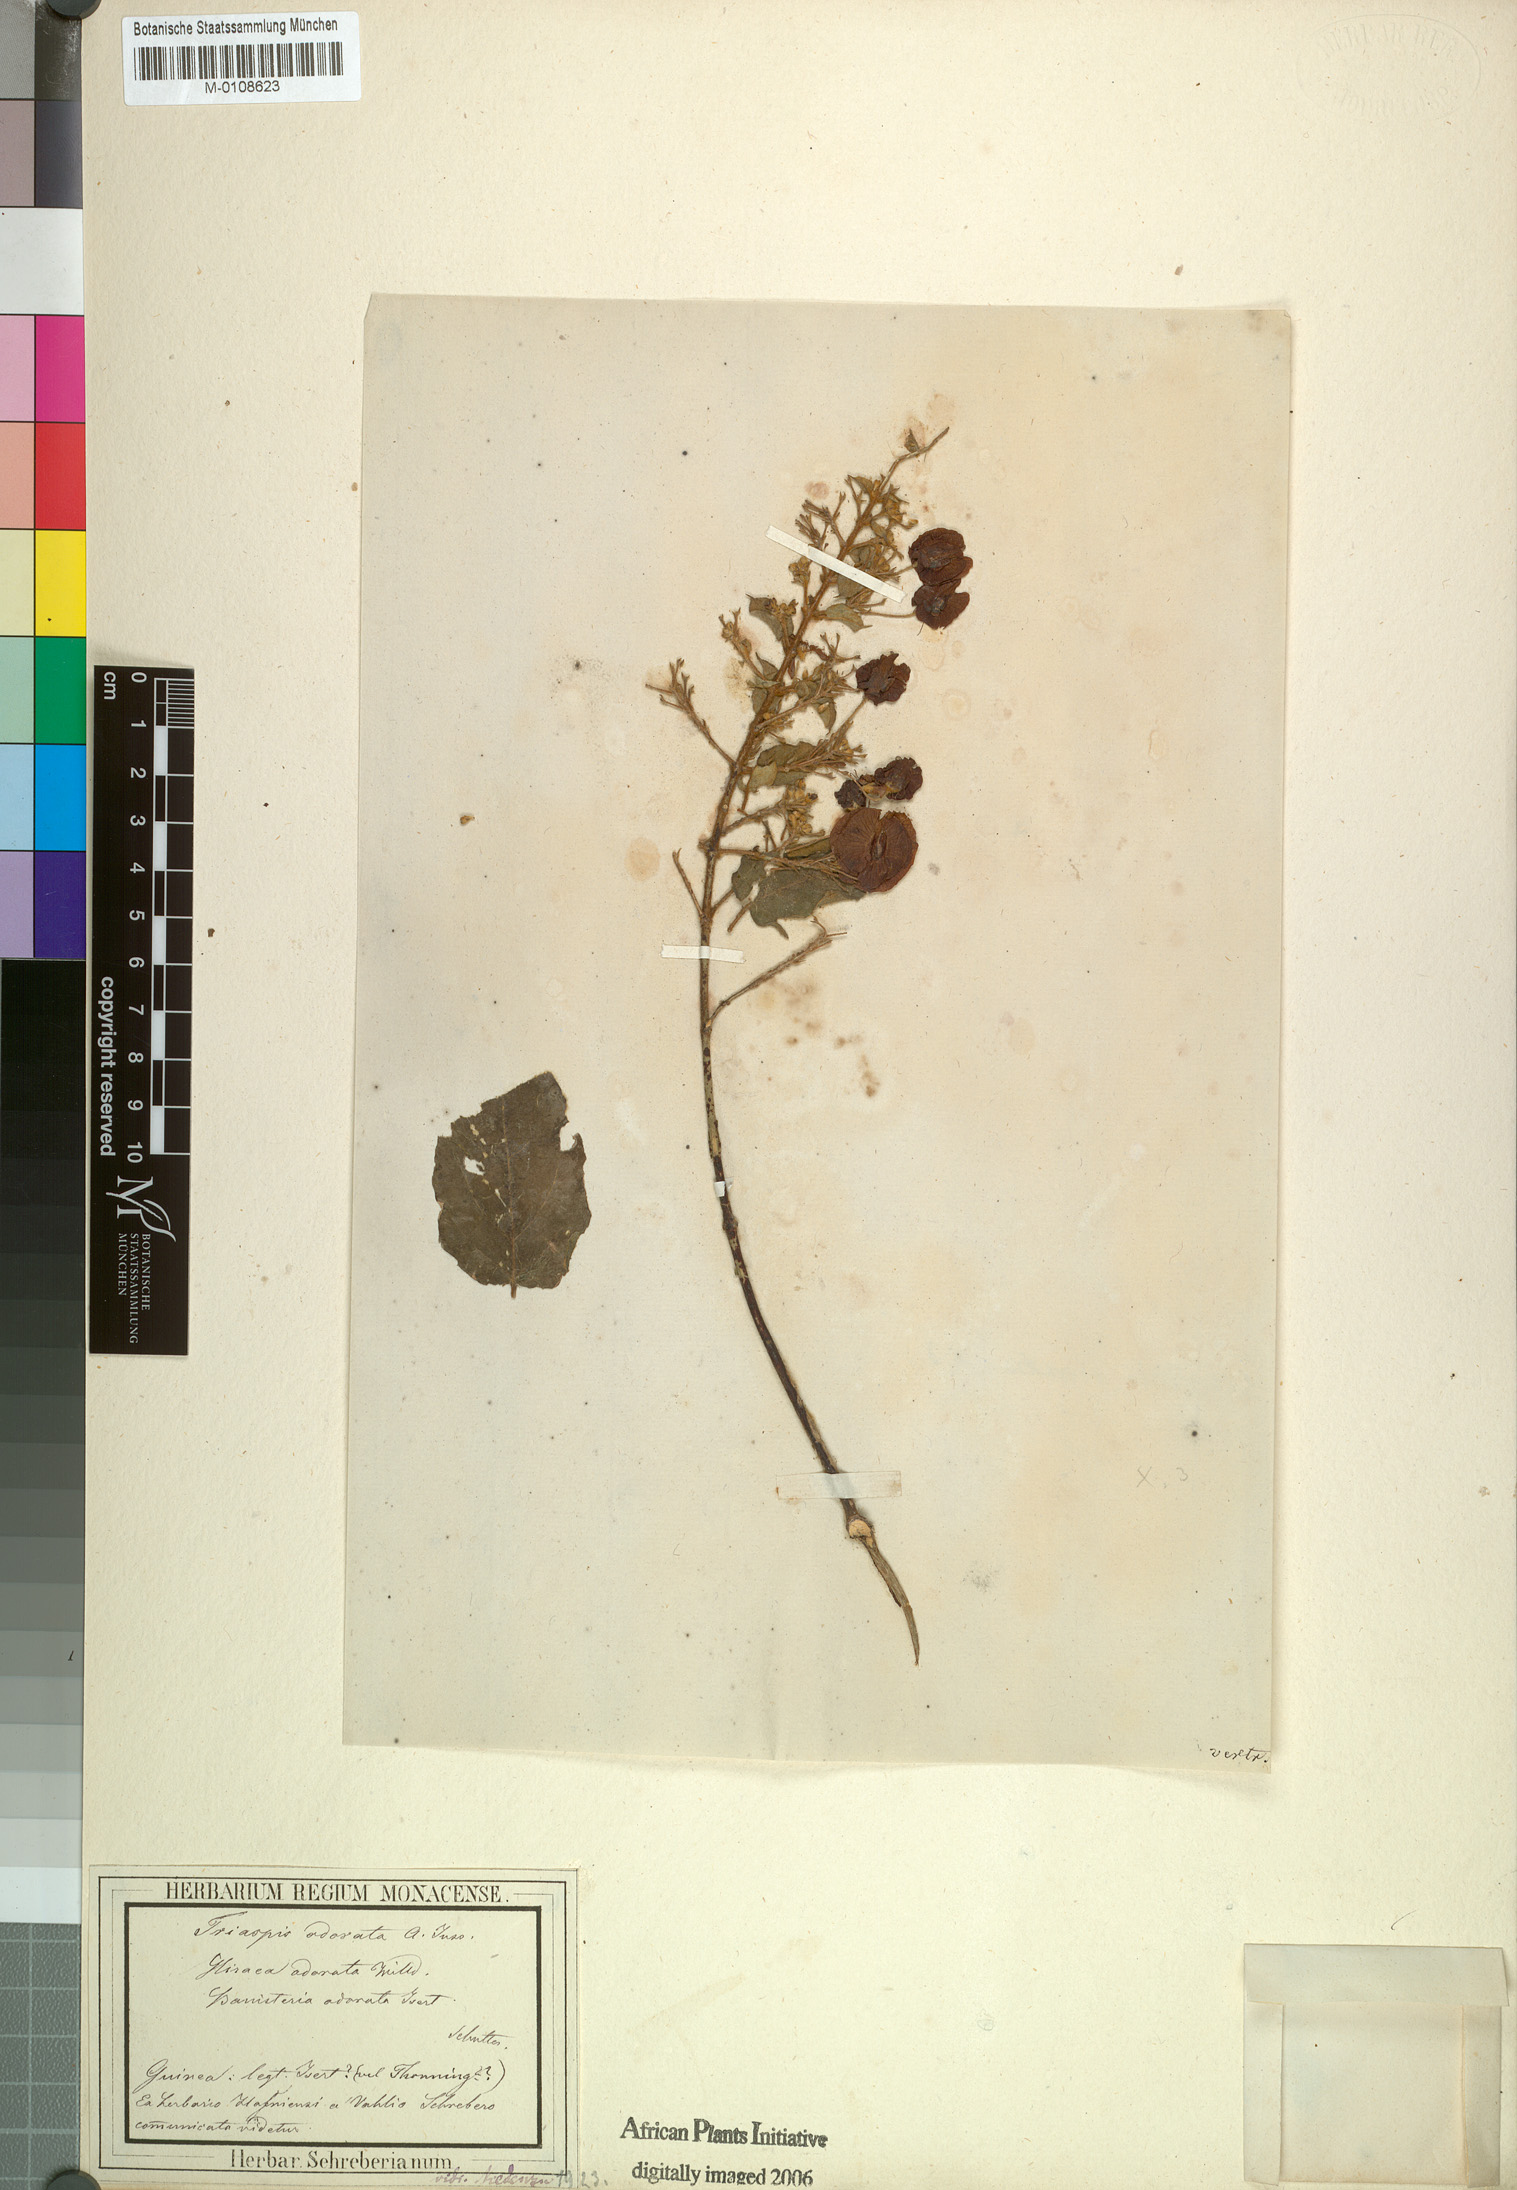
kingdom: Plantae
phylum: Tracheophyta
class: Magnoliopsida
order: Malpighiales
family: Malpighiaceae
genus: Triaspis
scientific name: Triaspis odorata
